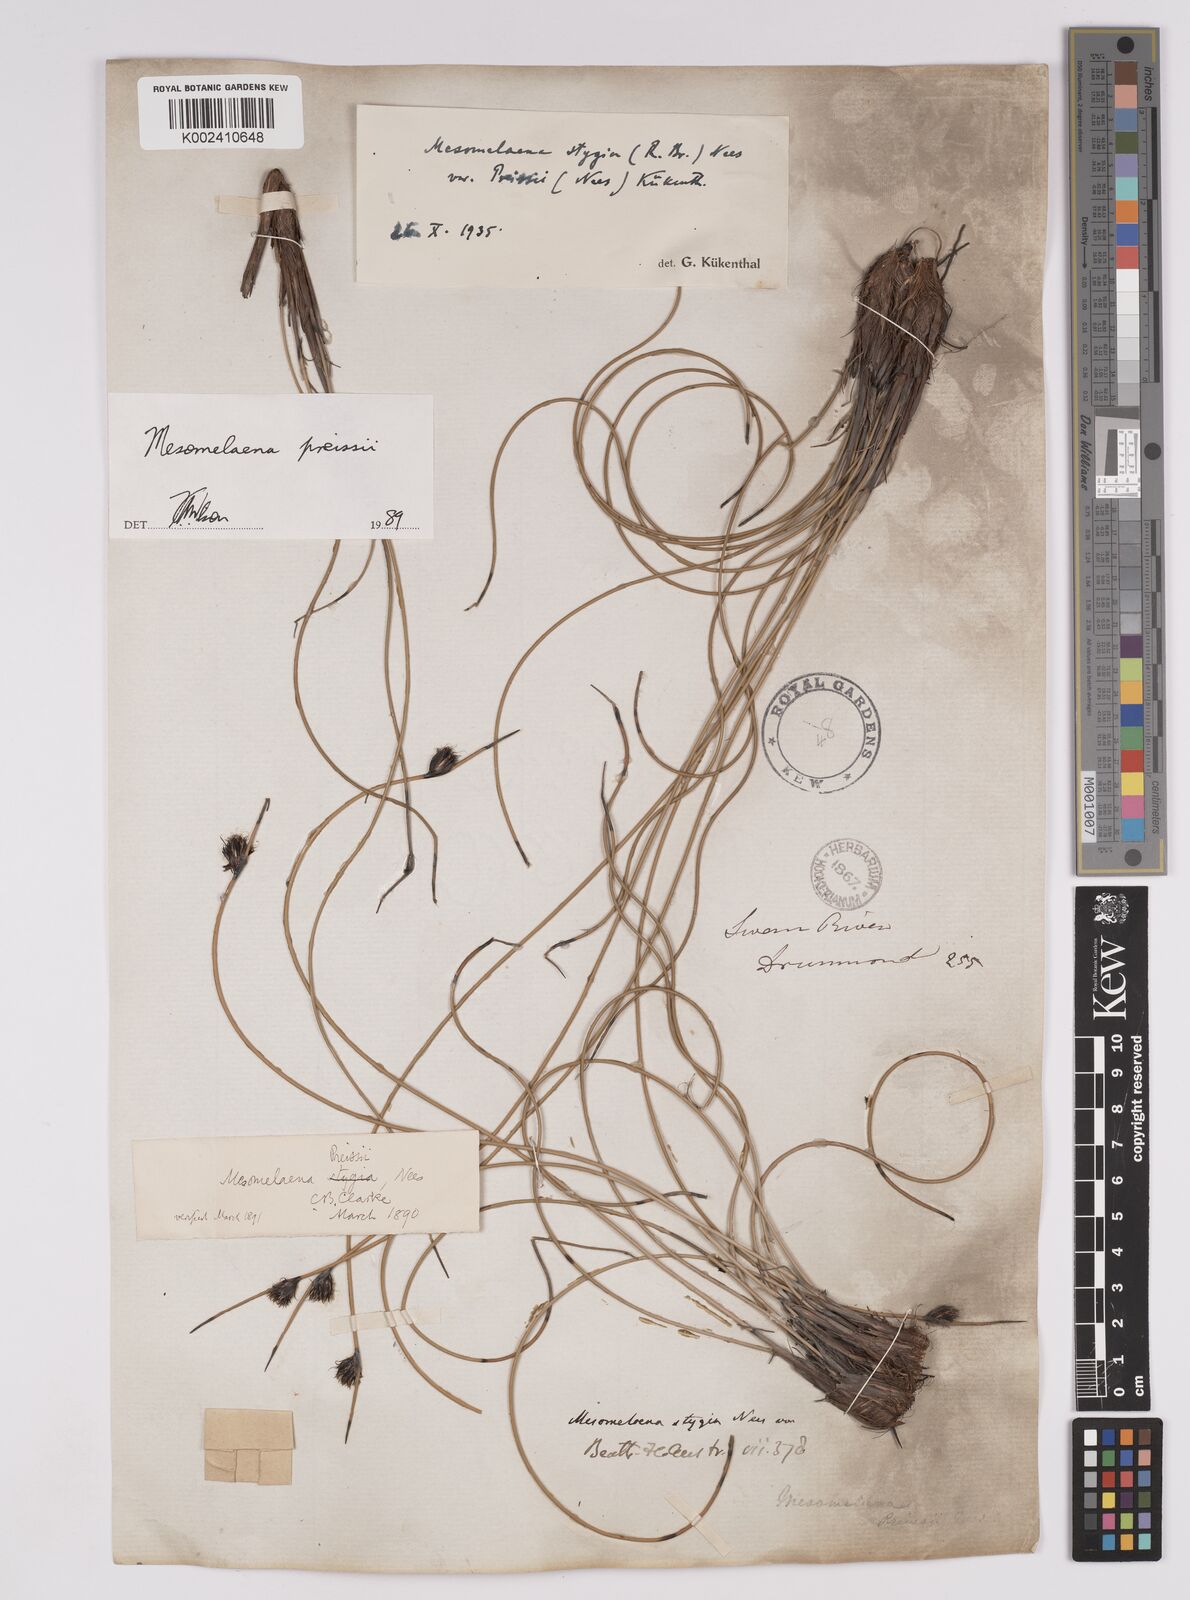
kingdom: Plantae
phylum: Tracheophyta
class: Liliopsida
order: Poales
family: Cyperaceae
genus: Mesomelaena
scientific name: Mesomelaena preissii
